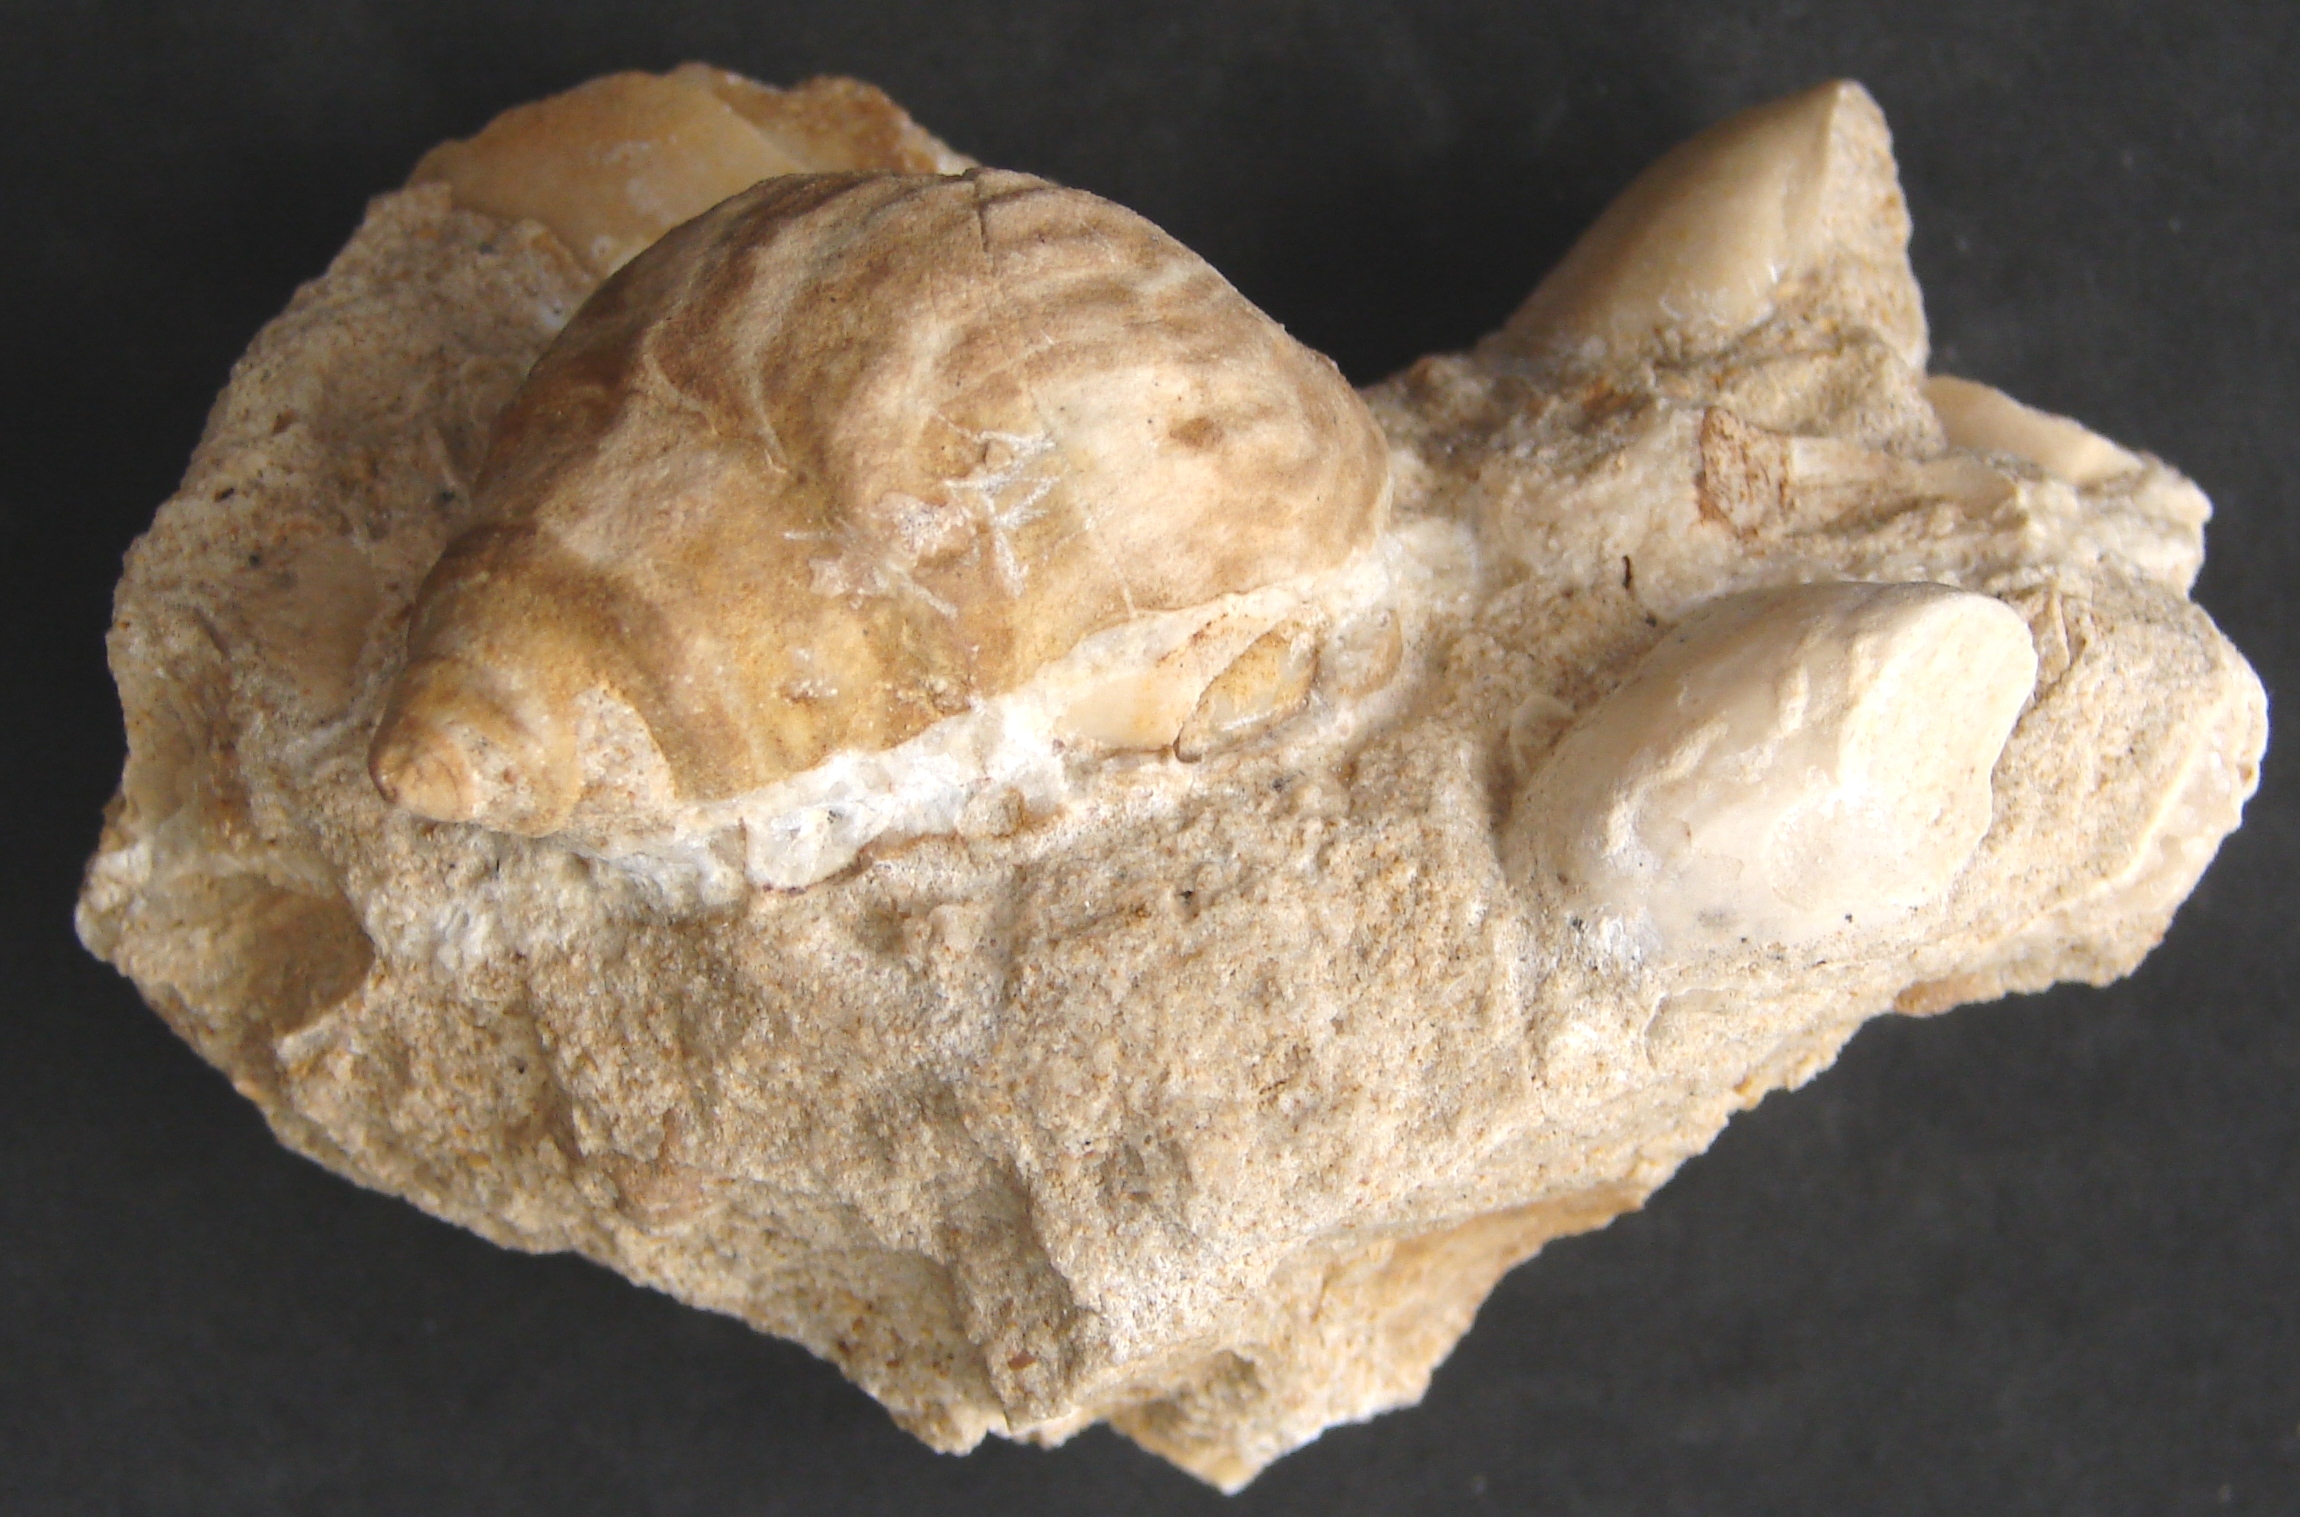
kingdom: Animalia
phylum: Mollusca
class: Gastropoda
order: Neogastropoda
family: Purpurinidae
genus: Microschiza
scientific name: Microschiza
